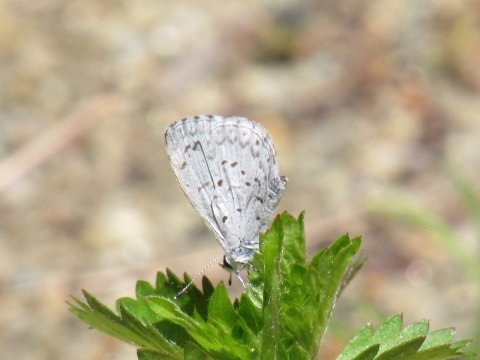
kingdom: Animalia
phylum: Arthropoda
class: Insecta
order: Lepidoptera
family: Lycaenidae
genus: Celastrina
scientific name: Celastrina lucia
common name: Northern Spring Azure
